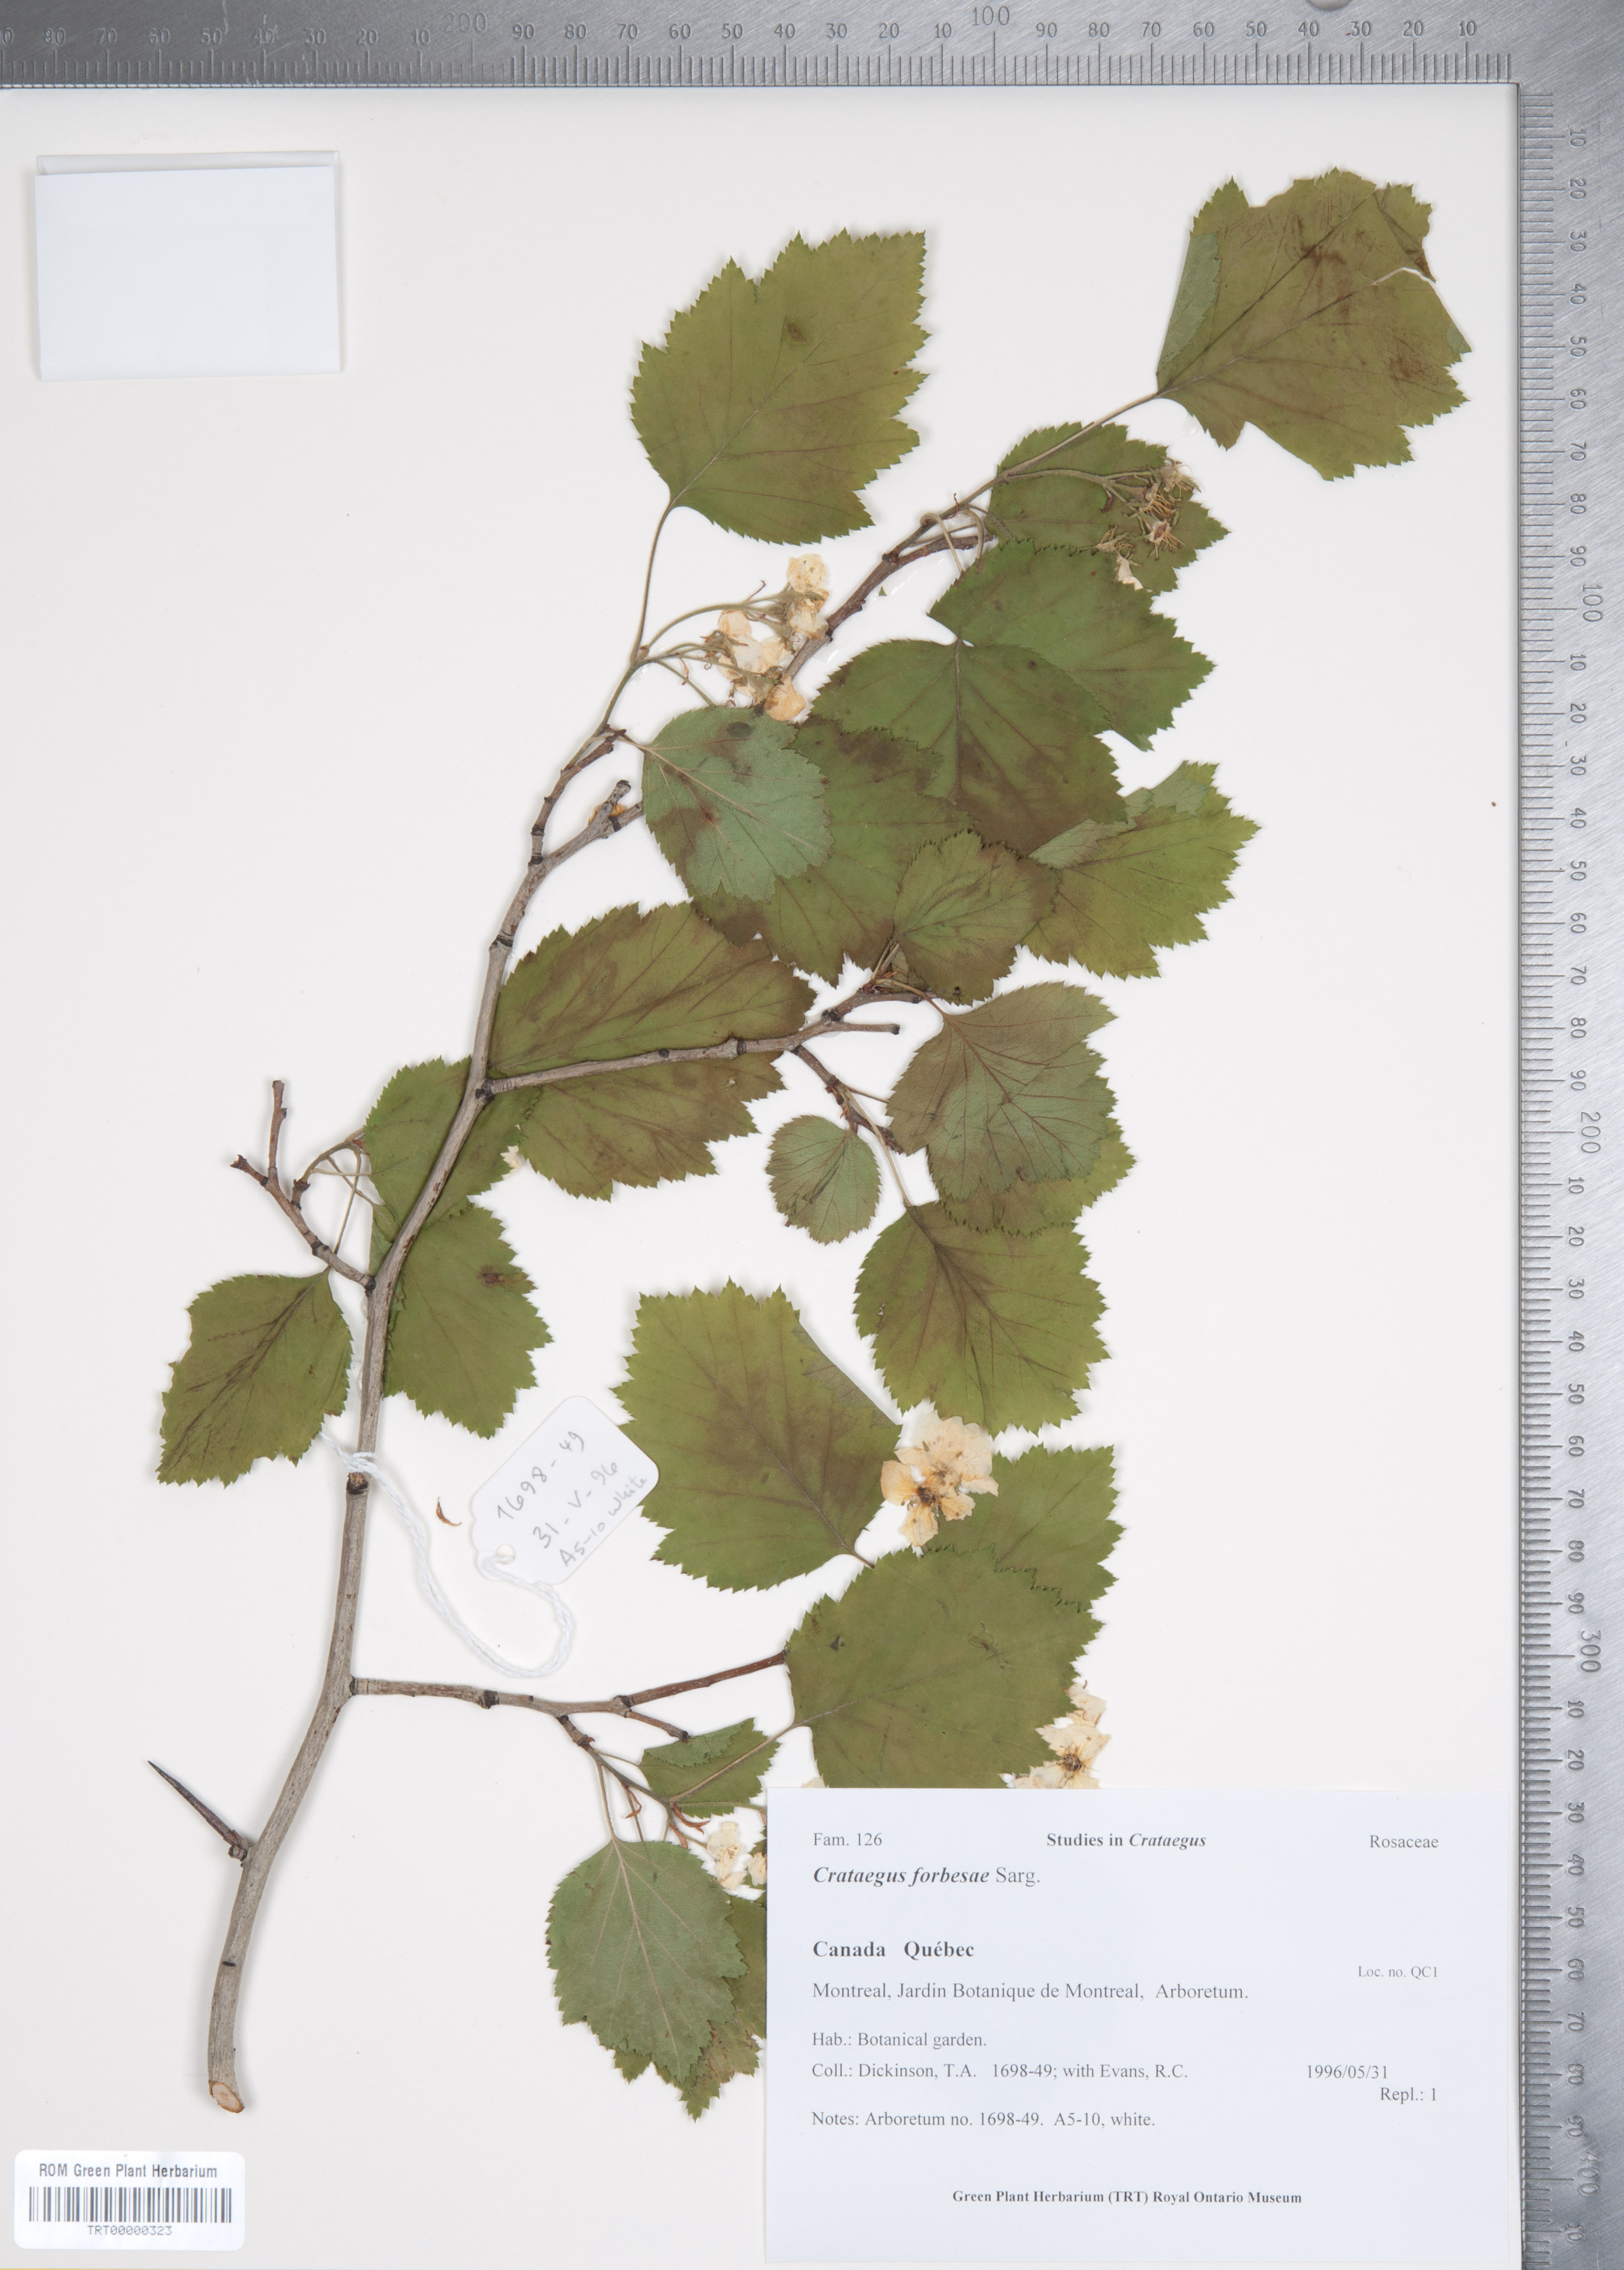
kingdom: Plantae
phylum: Tracheophyta
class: Magnoliopsida
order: Rosales
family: Rosaceae
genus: Crataegus
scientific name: Crataegus forbesae
